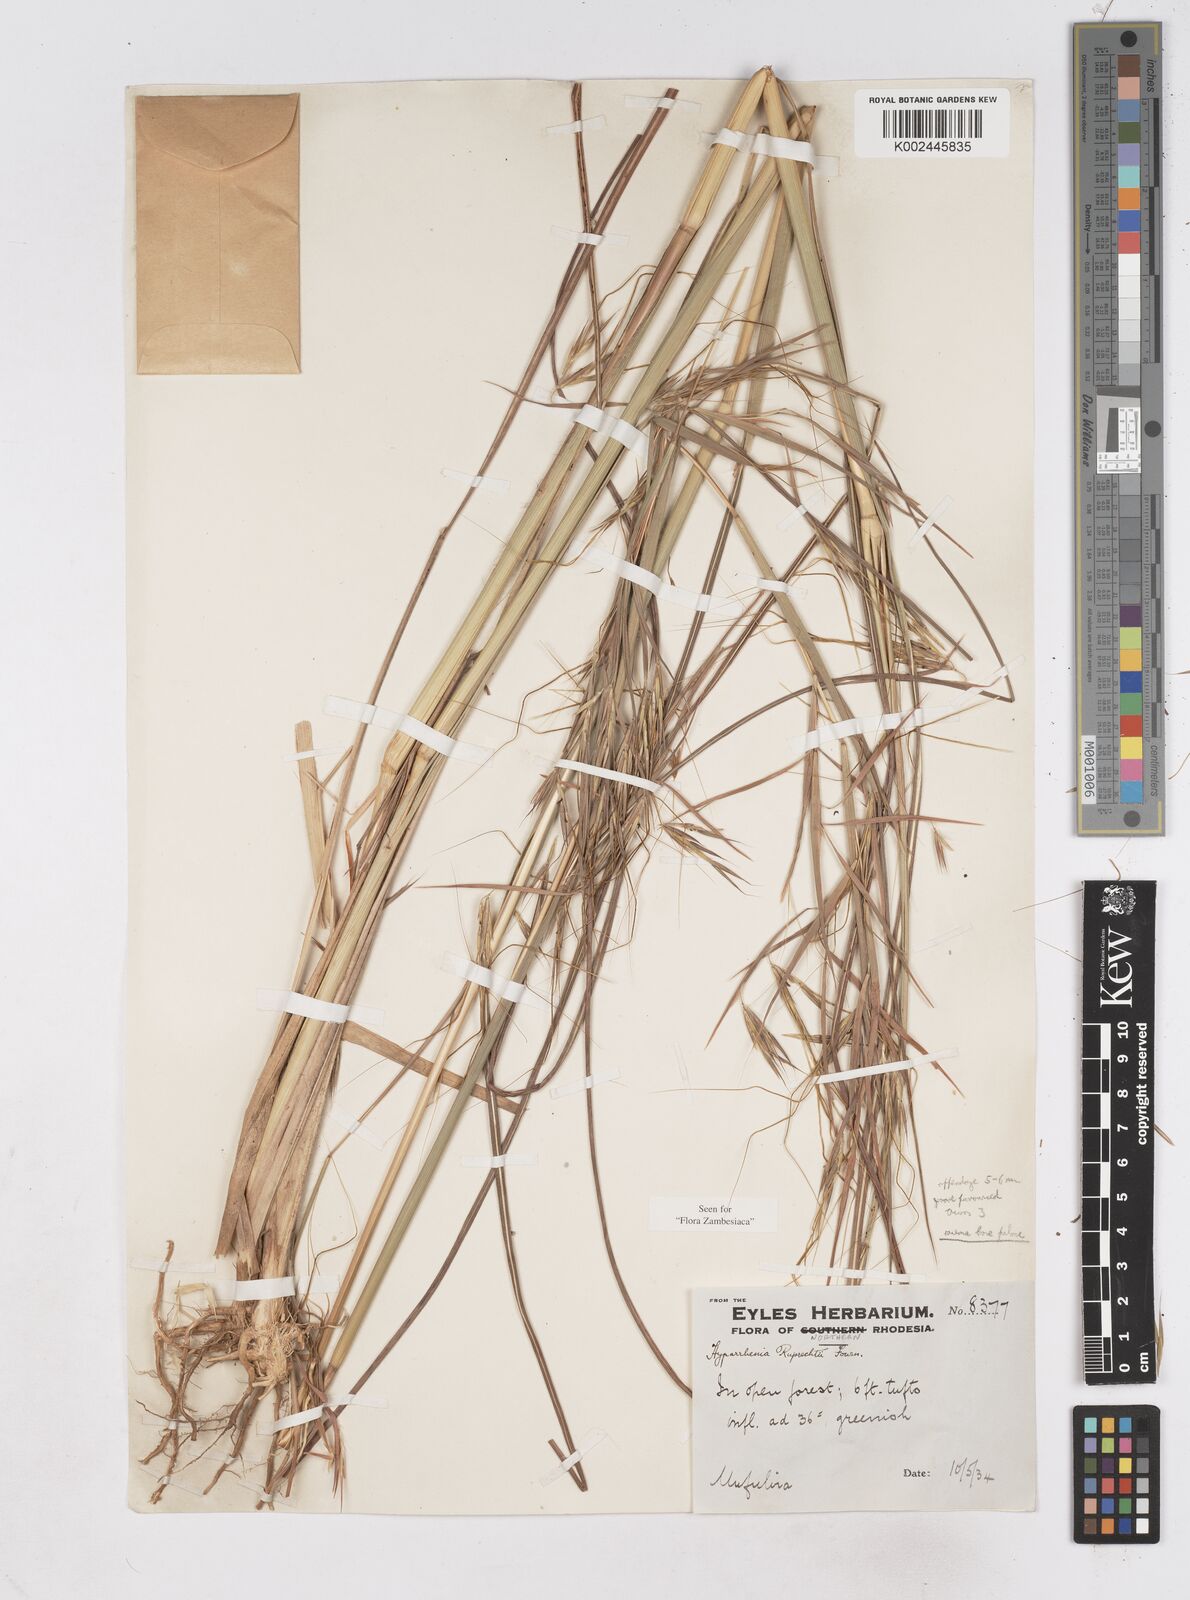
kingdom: Plantae
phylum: Tracheophyta
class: Liliopsida
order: Poales
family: Poaceae
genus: Hyperthelia
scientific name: Hyperthelia dissoluta
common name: Yellow thatching grass
